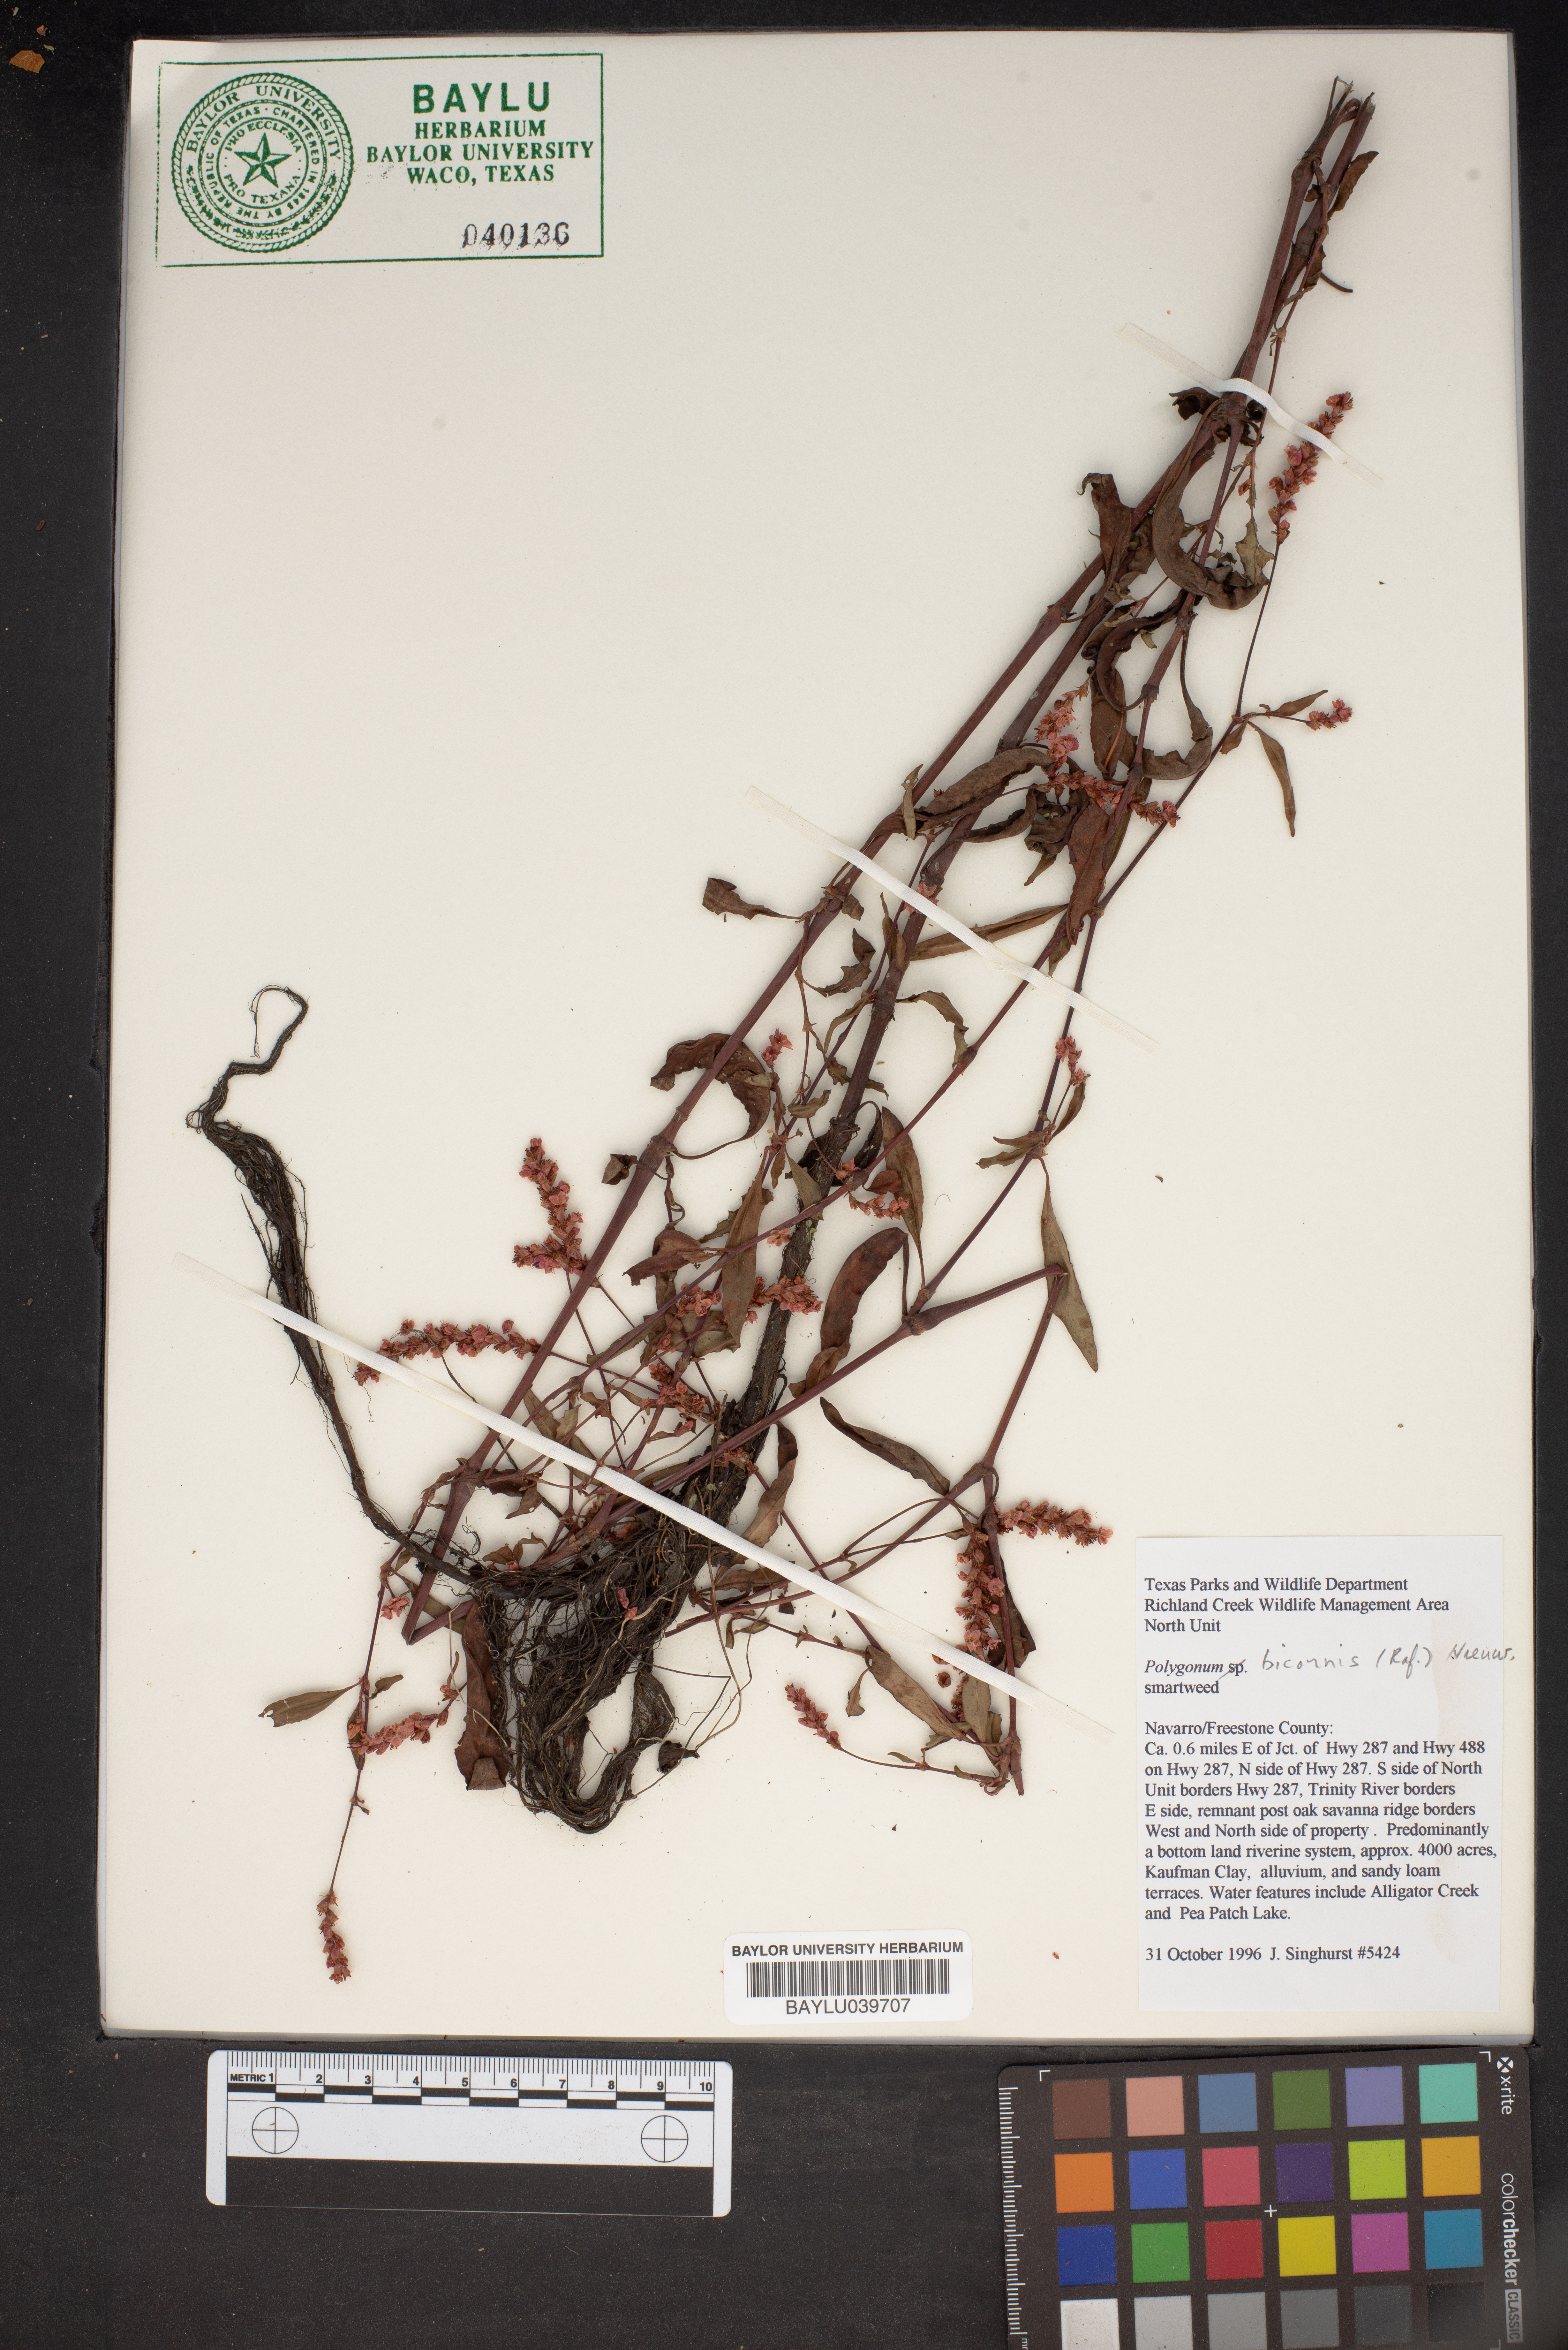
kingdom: Plantae
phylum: Tracheophyta
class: Magnoliopsida
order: Caryophyllales
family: Polygonaceae
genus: Polygonum
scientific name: Polygonum
